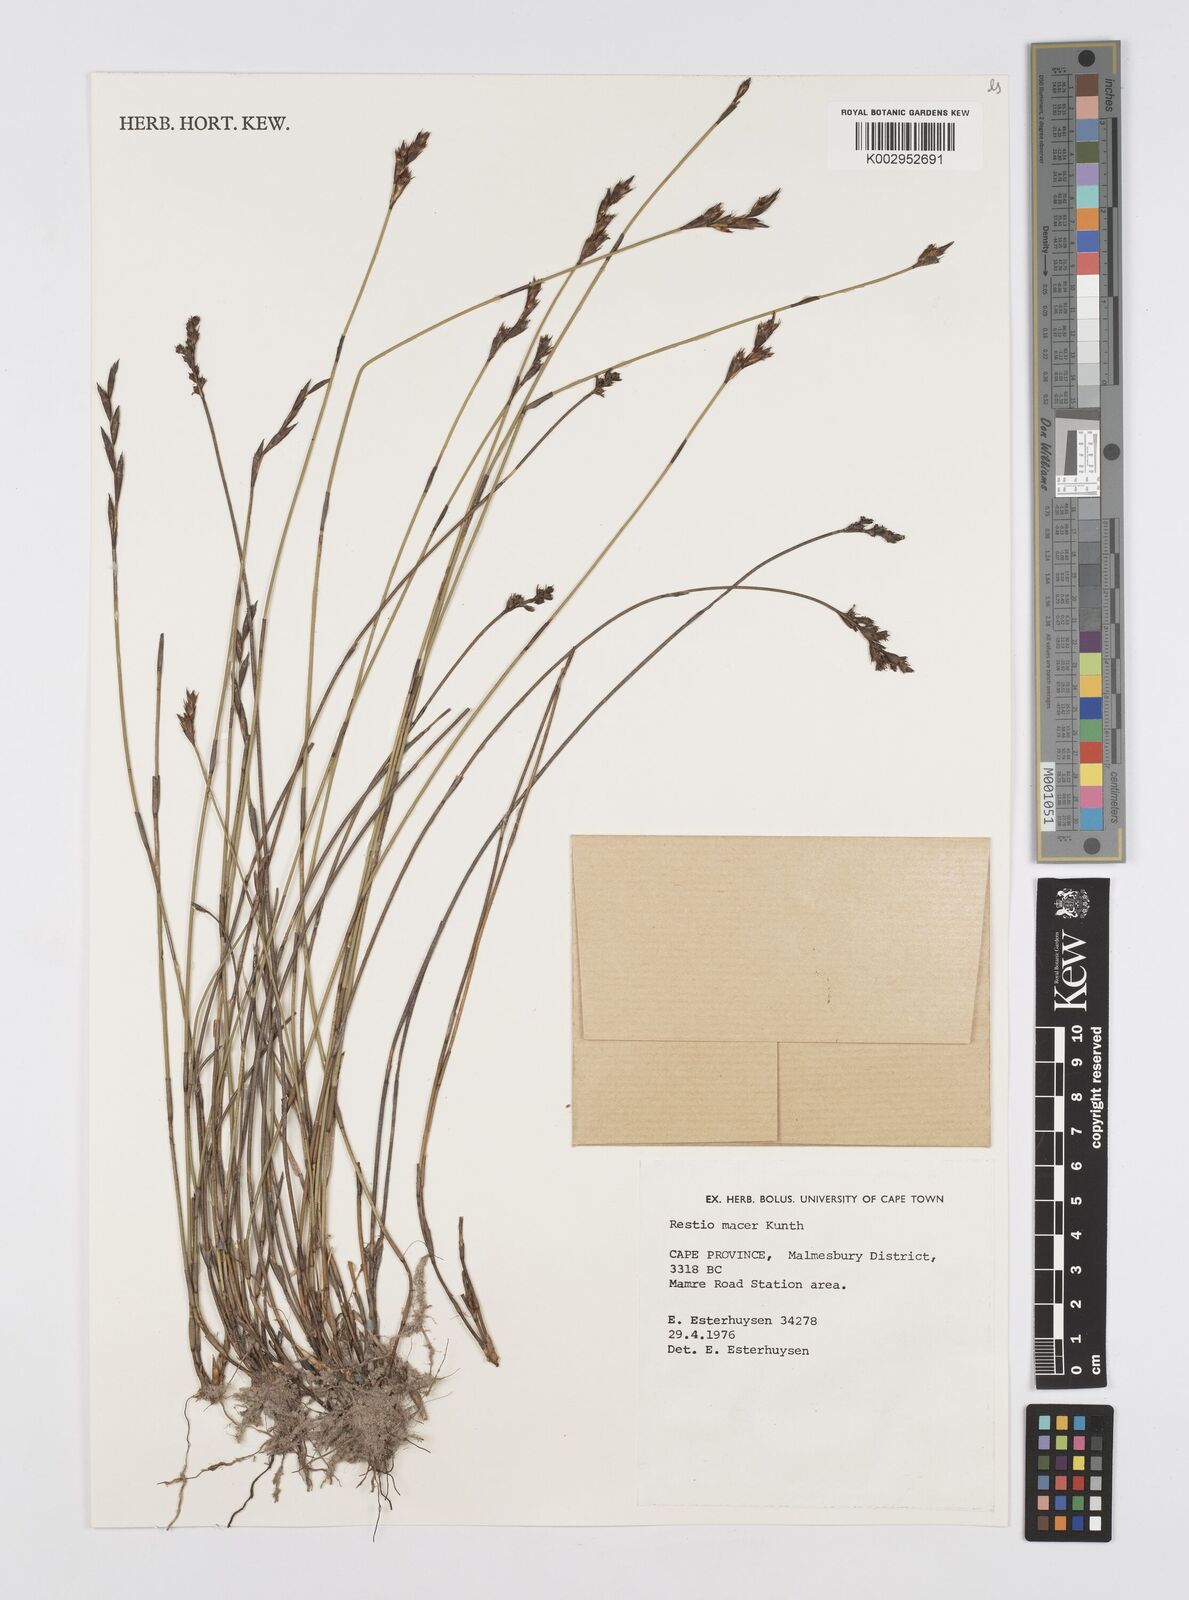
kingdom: Plantae
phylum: Tracheophyta
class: Liliopsida
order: Poales
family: Restionaceae
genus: Restio
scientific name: Restio macer
